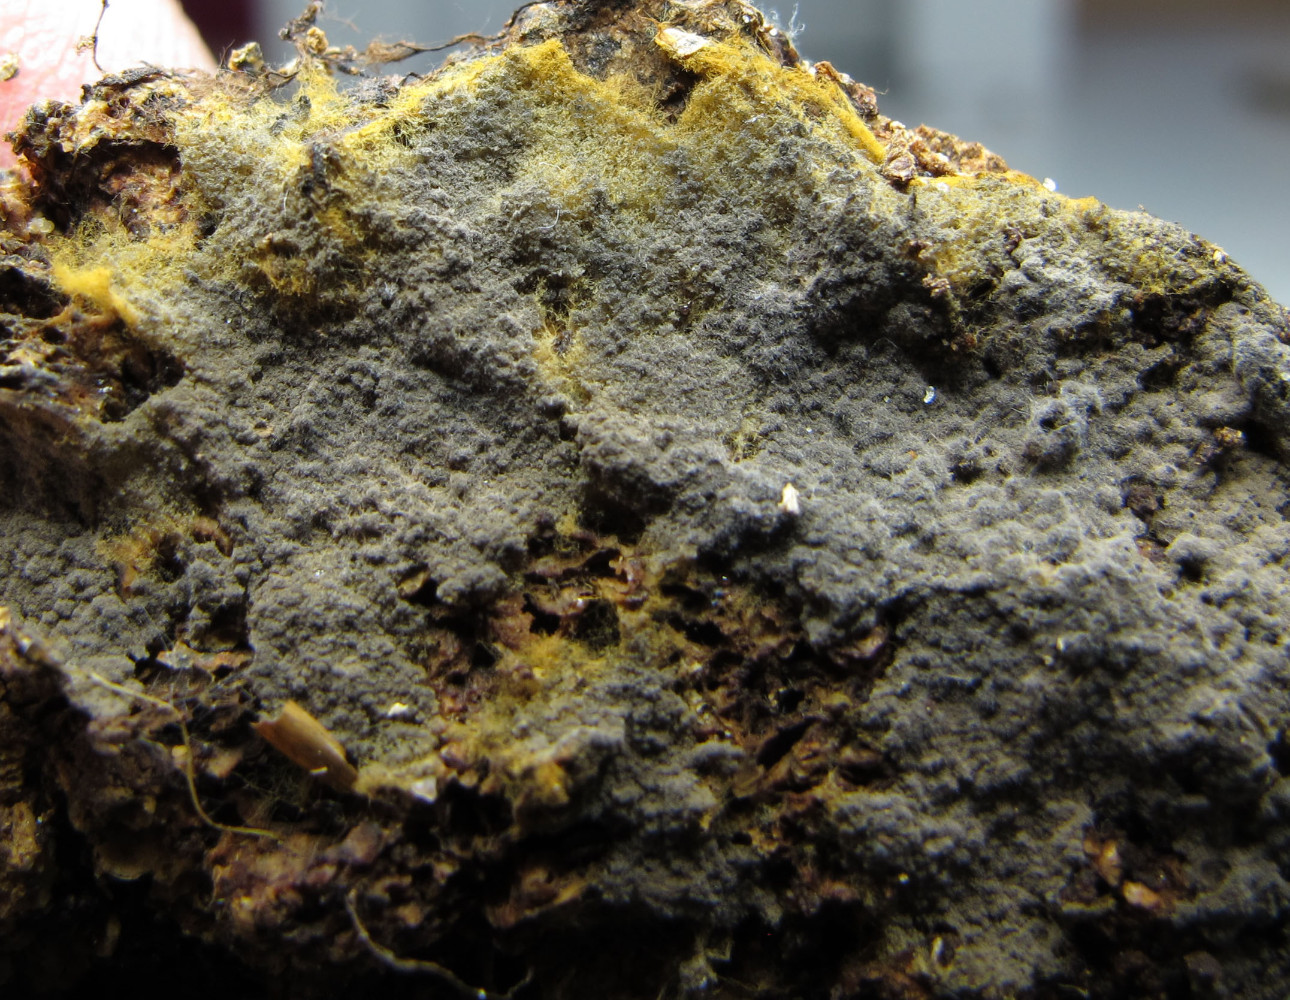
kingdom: Fungi
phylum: Basidiomycota
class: Agaricomycetes
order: Thelephorales
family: Thelephoraceae
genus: Polyozellus
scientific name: Polyozellus humicola
